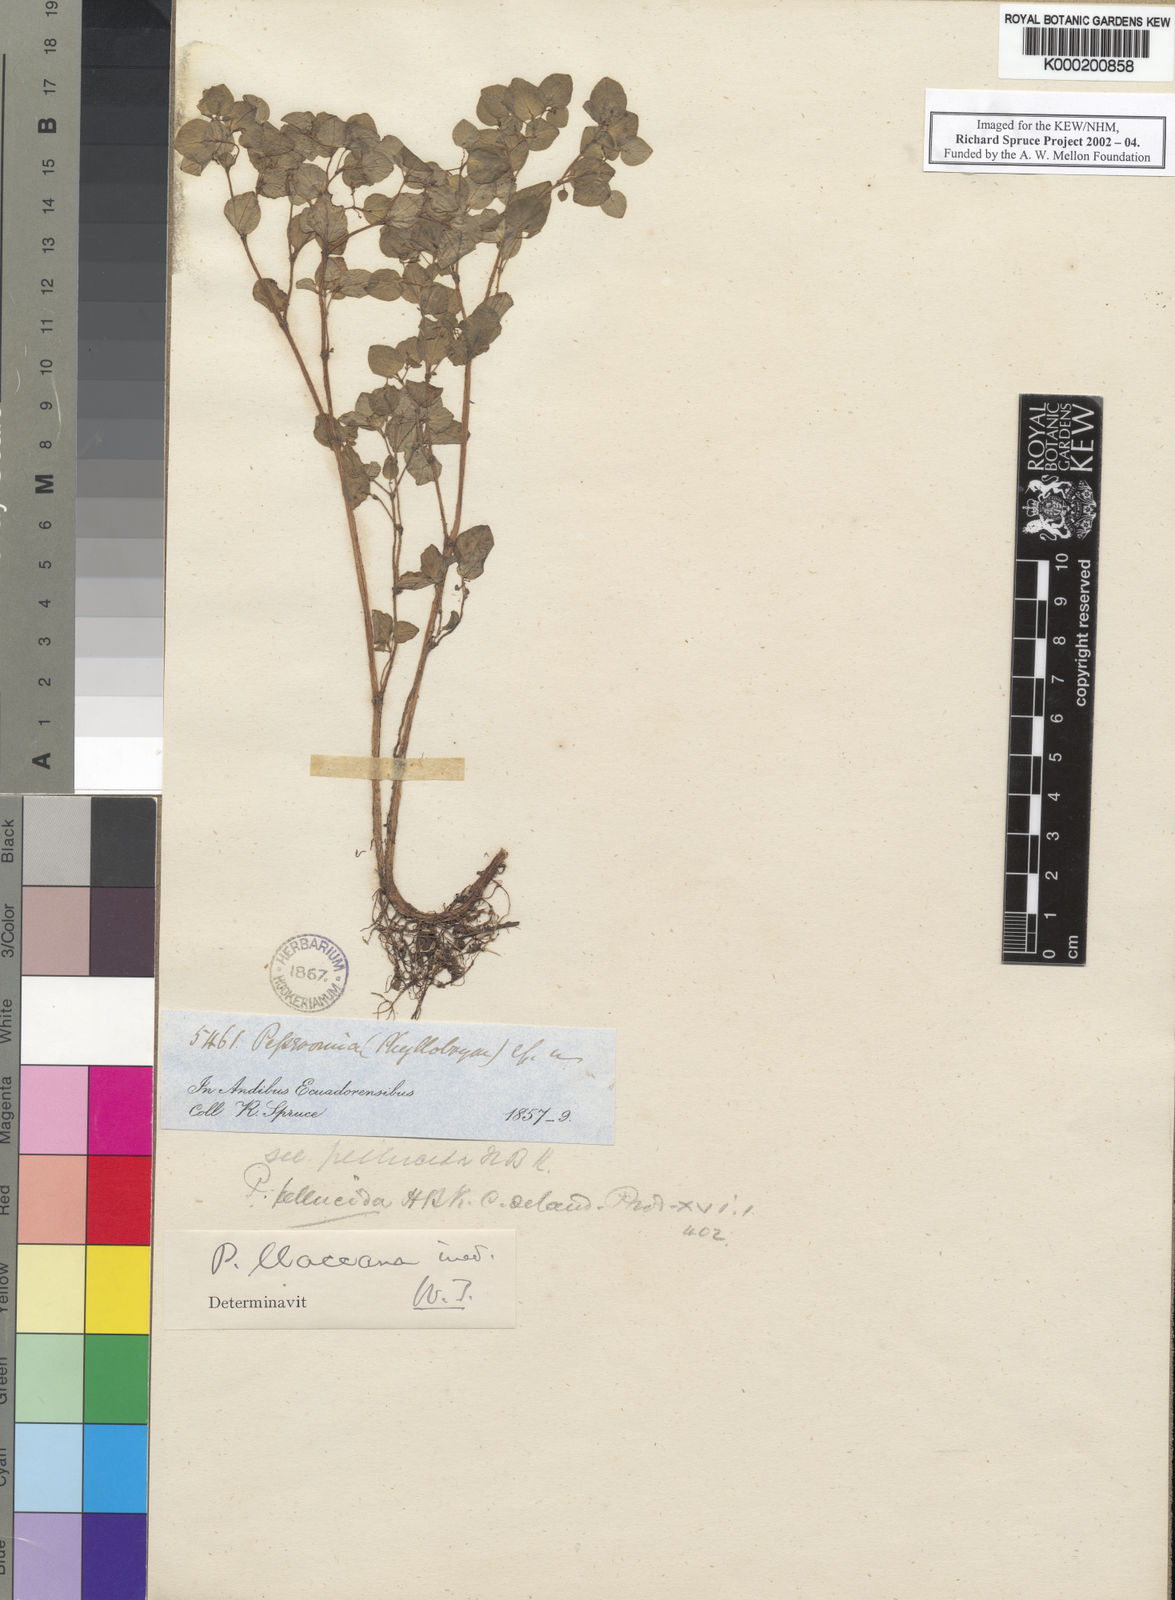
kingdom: Plantae
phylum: Tracheophyta
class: Magnoliopsida
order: Piperales
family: Piperaceae
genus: Peperomia
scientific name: Peperomia
